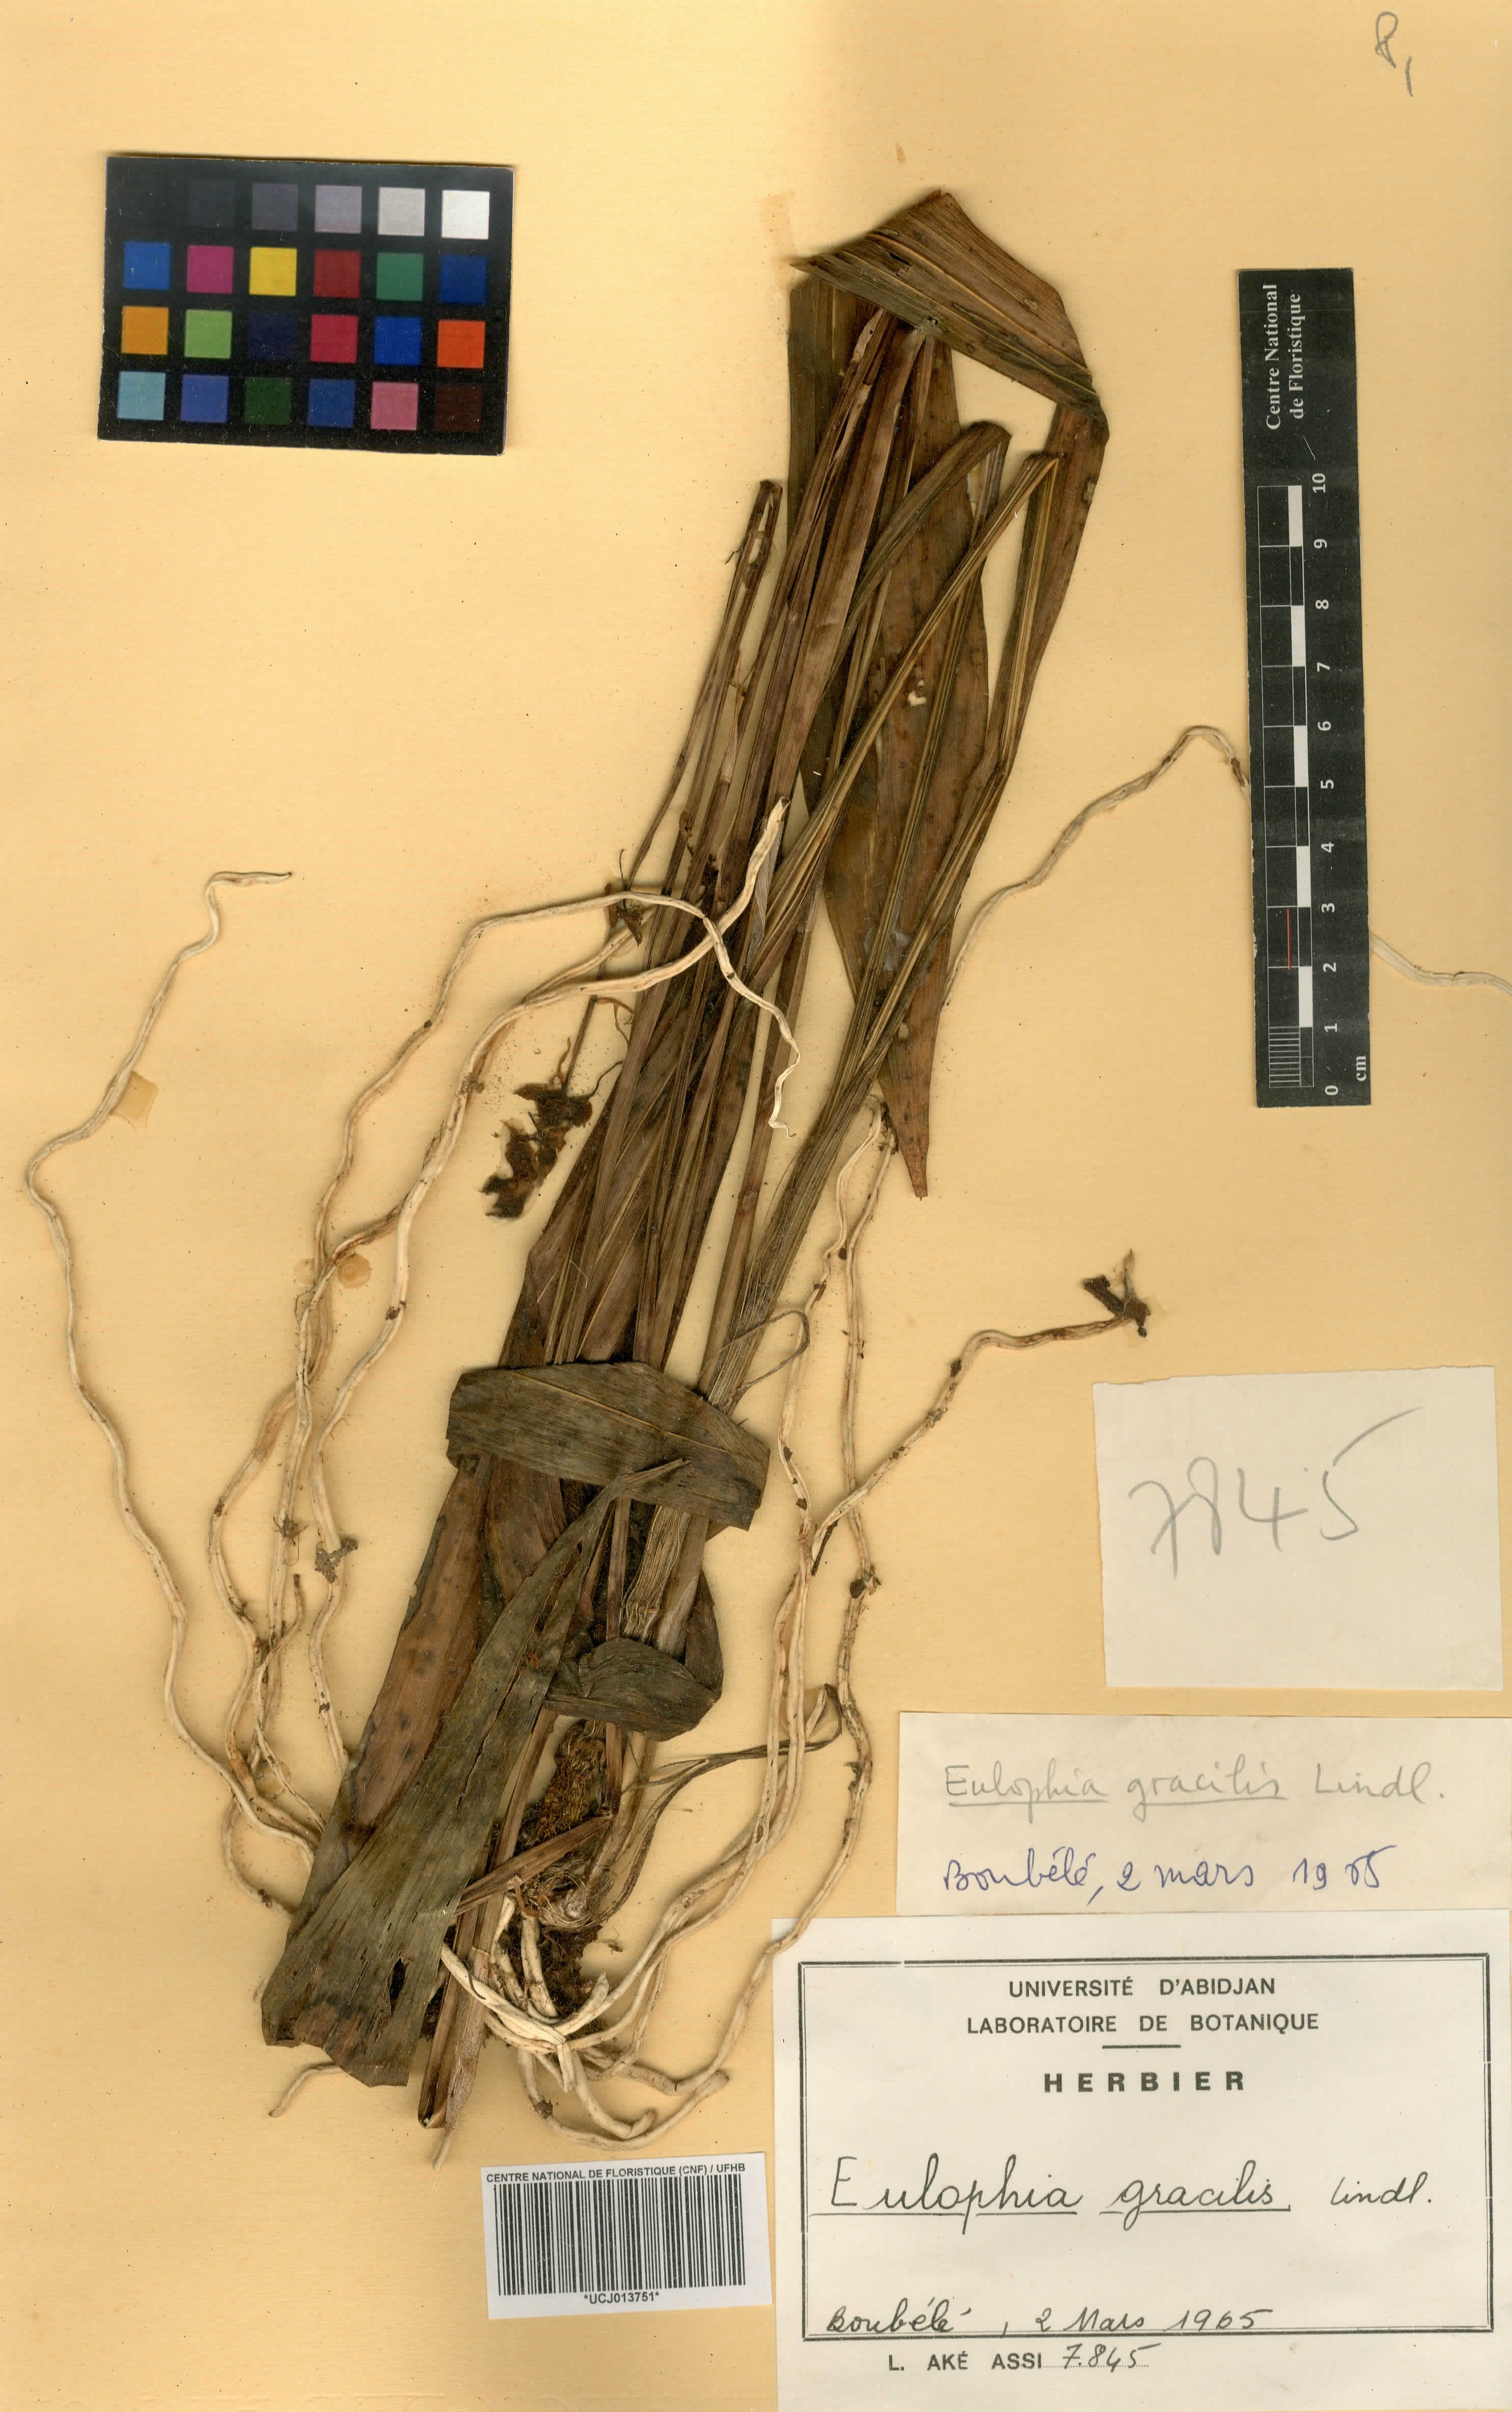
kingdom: Plantae
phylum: Tracheophyta
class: Liliopsida
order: Asparagales
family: Orchidaceae
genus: Eulophia
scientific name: Eulophia gracilis
